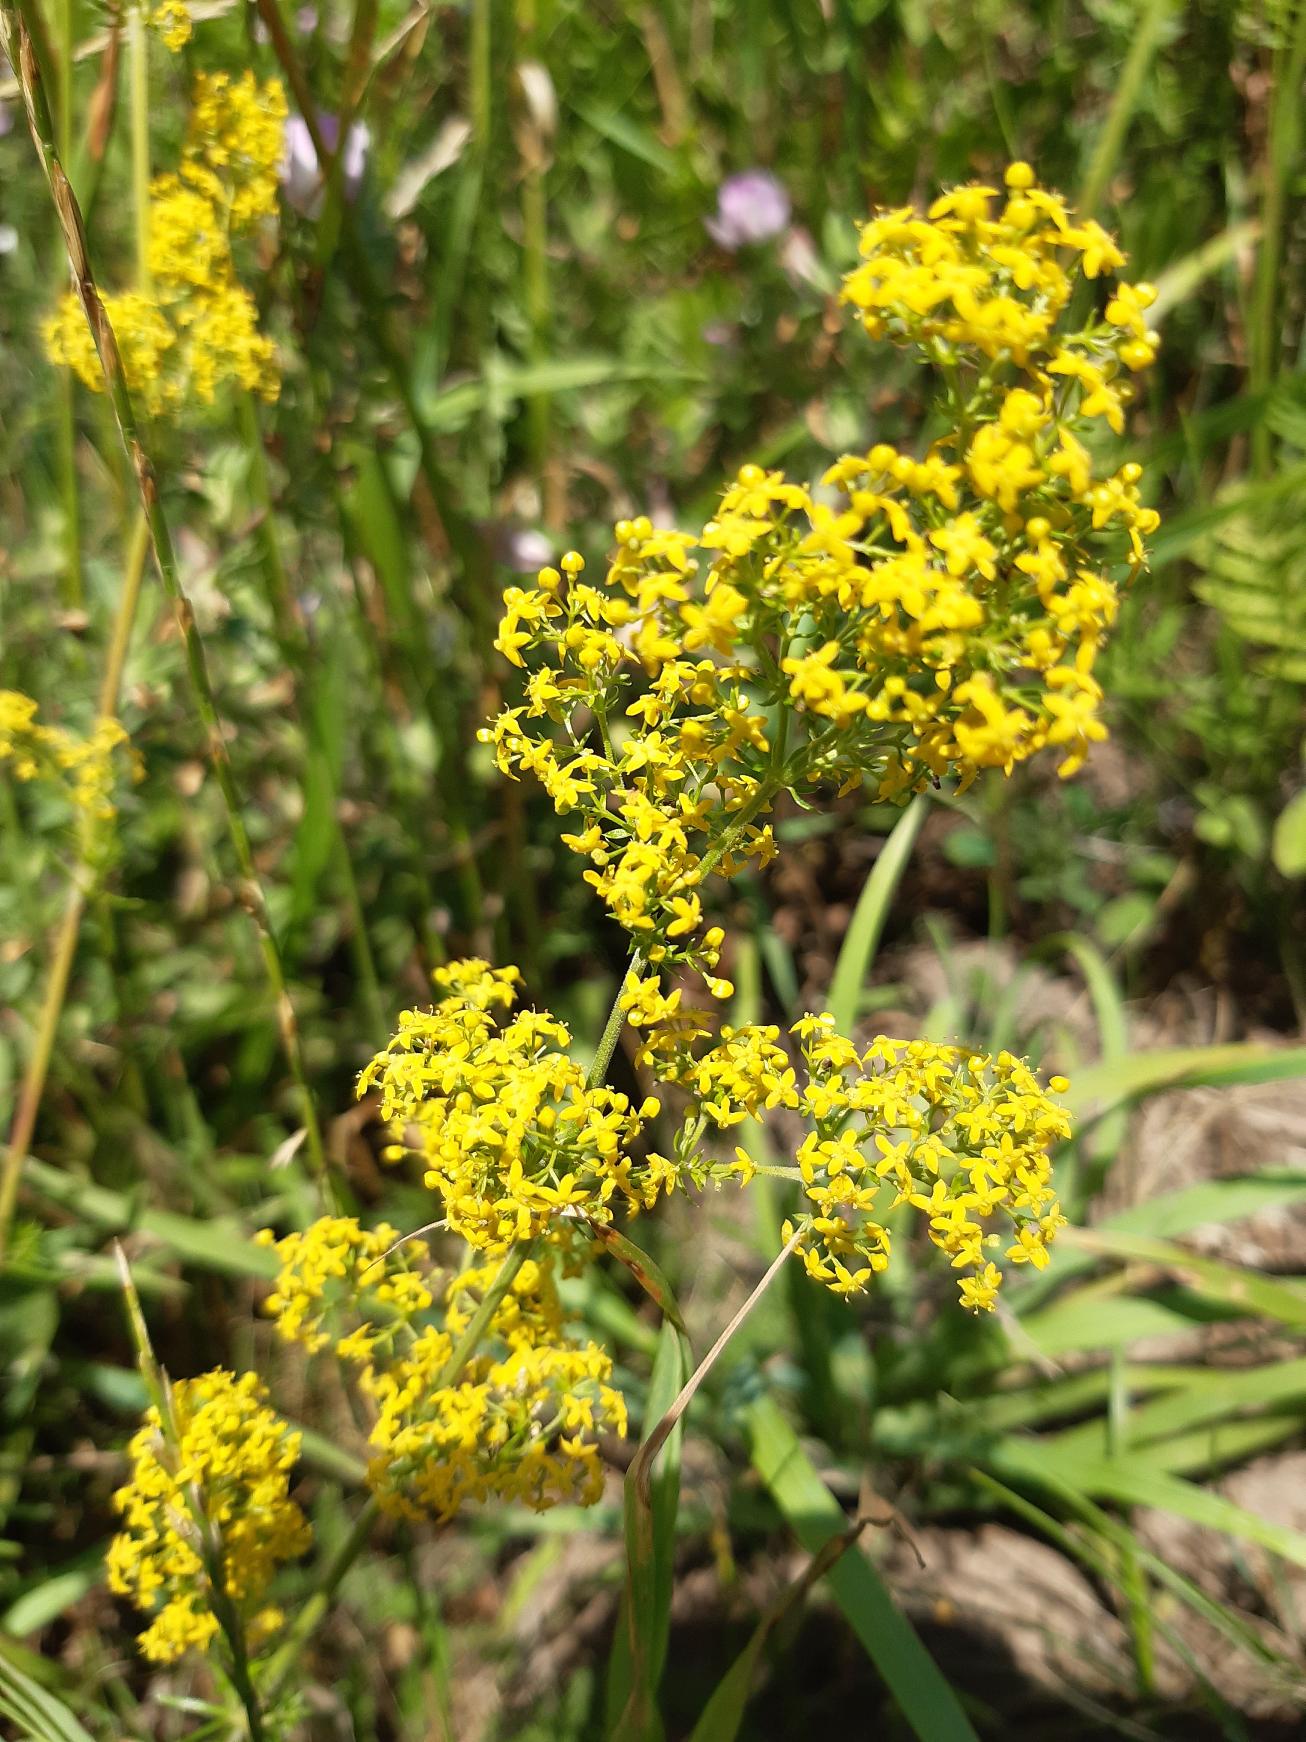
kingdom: Plantae
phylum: Tracheophyta
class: Magnoliopsida
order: Gentianales
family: Rubiaceae
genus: Galium
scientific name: Galium verum
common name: Gul snerre
